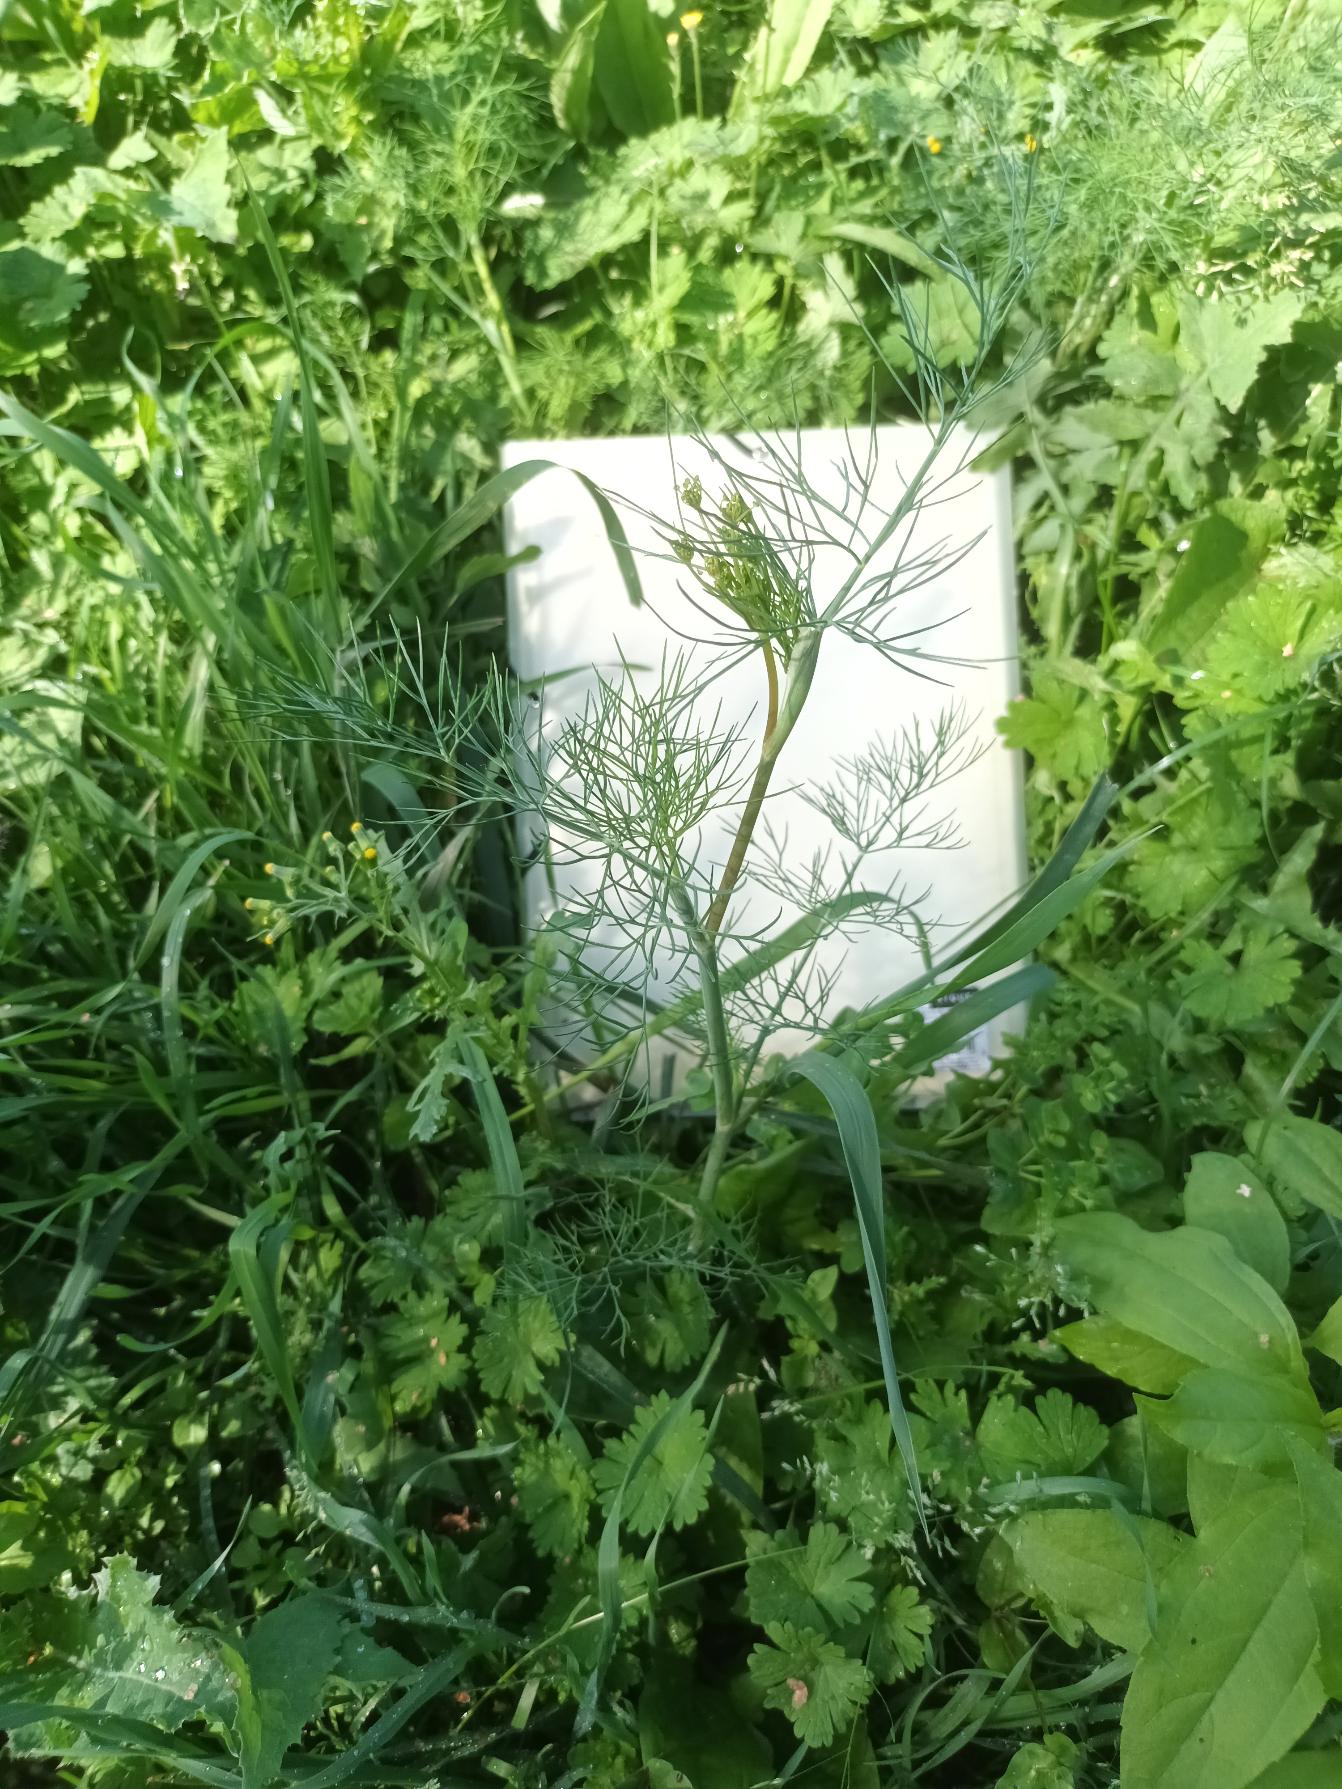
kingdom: Plantae
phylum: Tracheophyta
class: Magnoliopsida
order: Apiales
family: Apiaceae
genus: Anethum
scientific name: Anethum graveolens
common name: Dild
